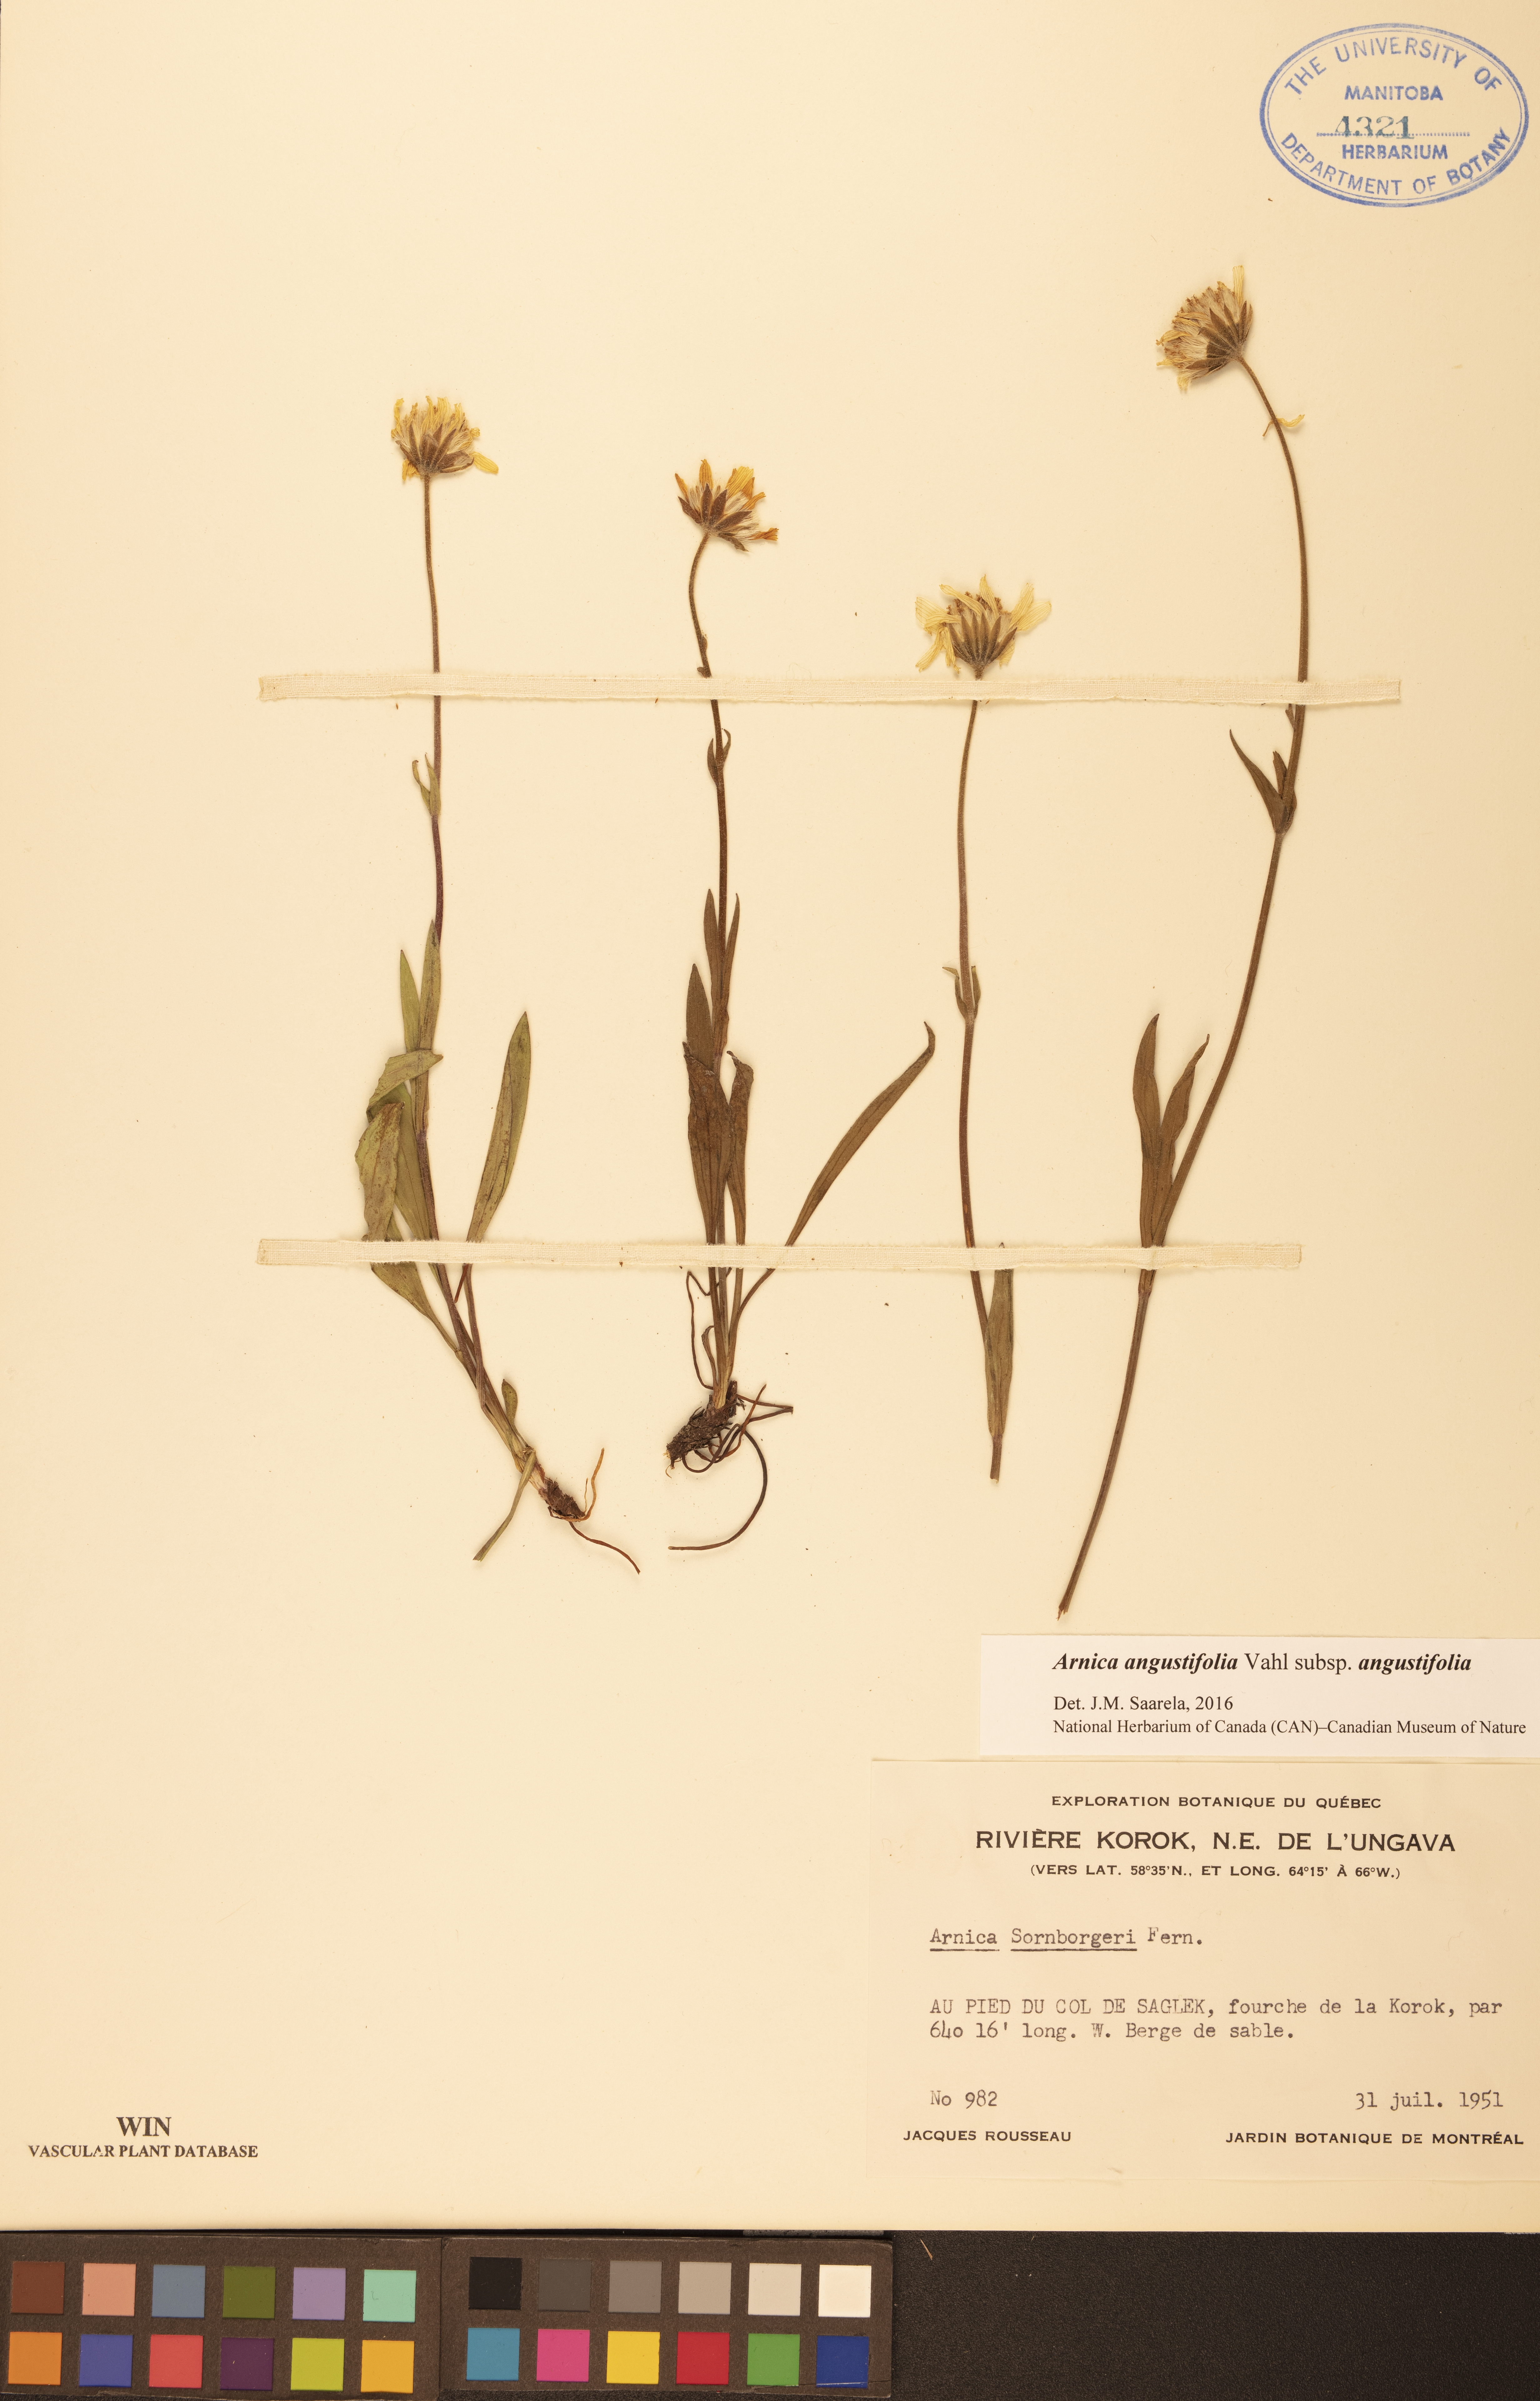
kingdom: Plantae
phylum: Tracheophyta
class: Magnoliopsida
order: Asterales
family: Asteraceae
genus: Arnica
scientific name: Arnica angustifolia
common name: Arctic arnica
